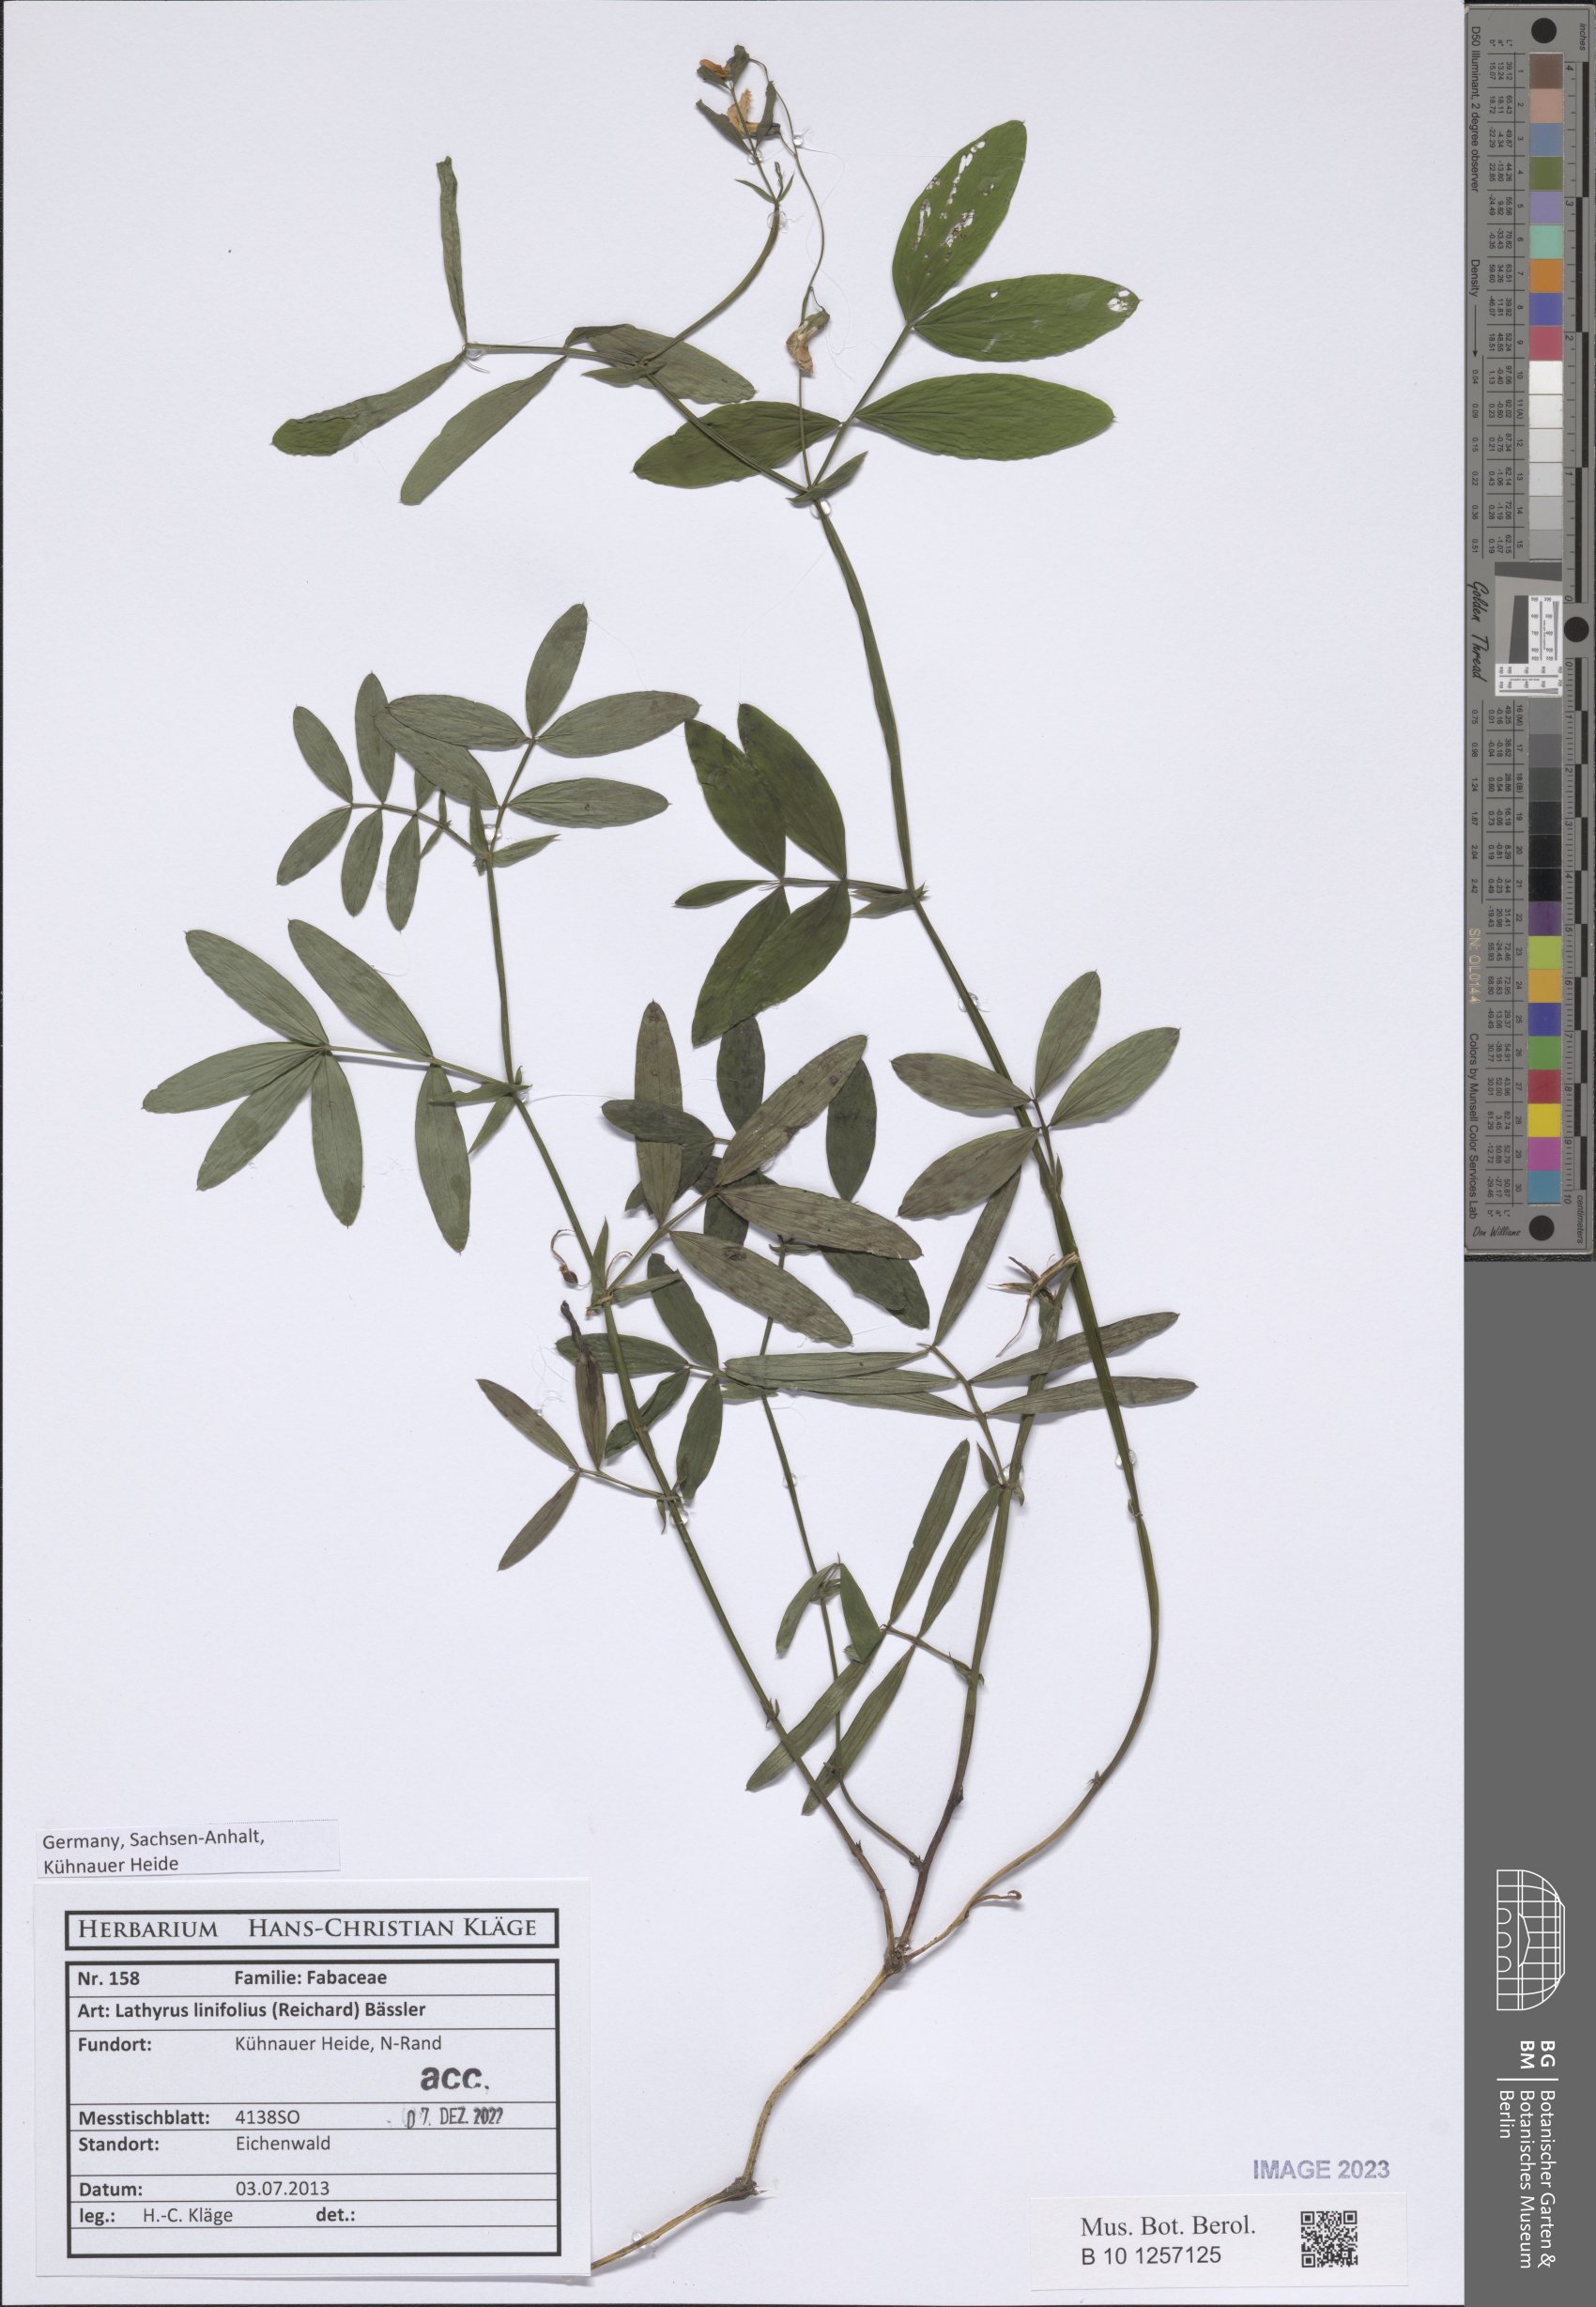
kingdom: Plantae
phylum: Tracheophyta
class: Magnoliopsida
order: Fabales
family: Fabaceae
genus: Lathyrus
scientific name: Lathyrus linifolius
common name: Bitter-vetch
